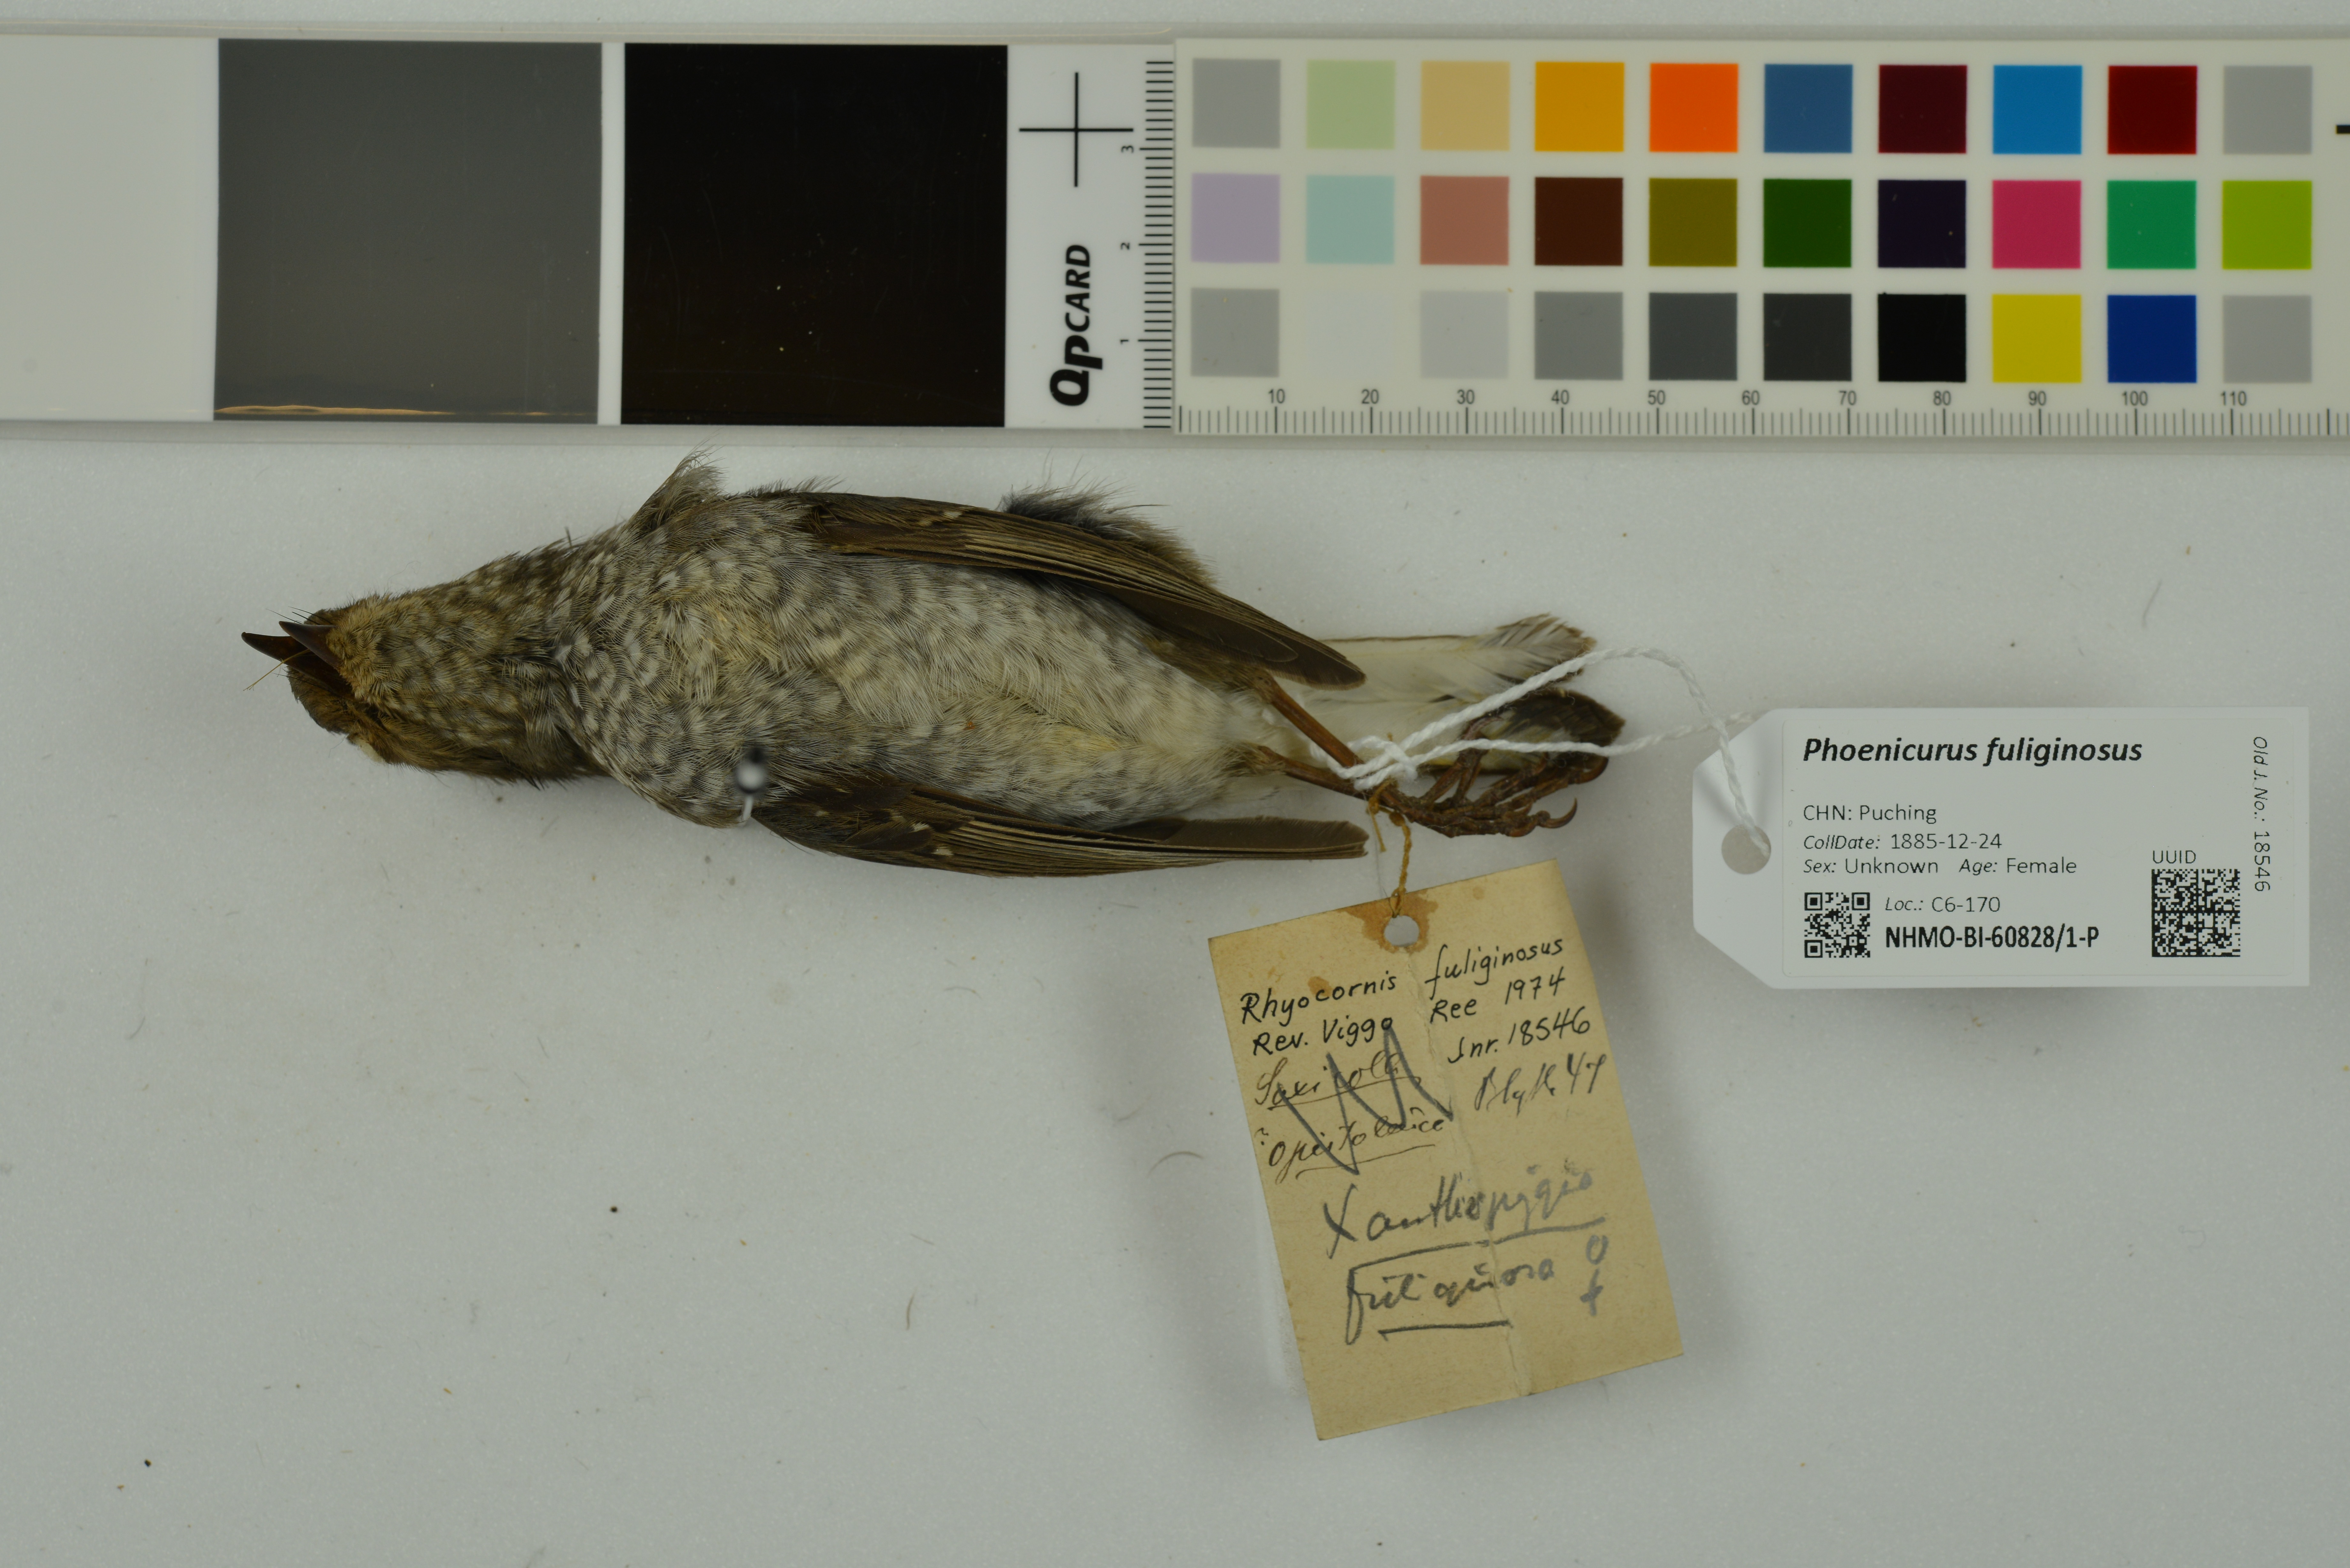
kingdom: Animalia
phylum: Chordata
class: Aves
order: Passeriformes
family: Muscicapidae
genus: Phoenicurus
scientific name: Phoenicurus fuliginosus
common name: Plumbeous water redstart
